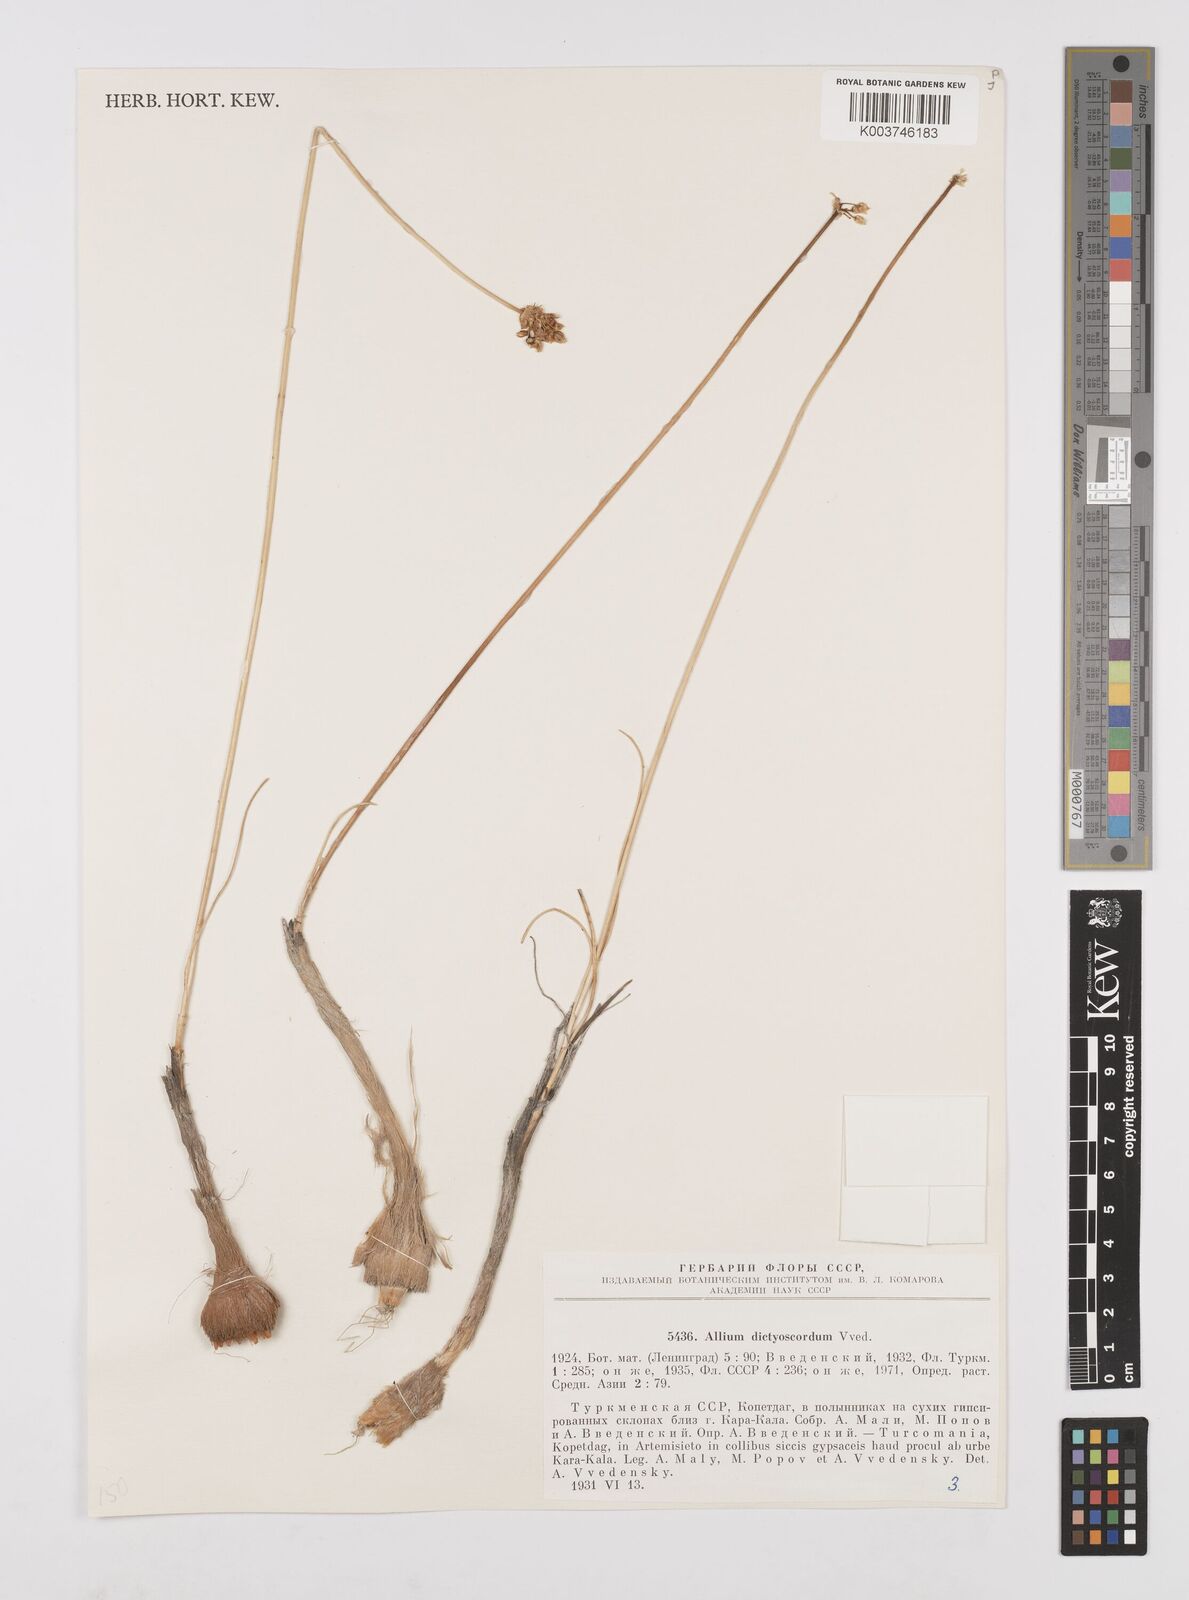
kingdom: Plantae
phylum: Tracheophyta
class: Liliopsida
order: Asparagales
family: Amaryllidaceae
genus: Allium
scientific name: Allium dictyoscordum
